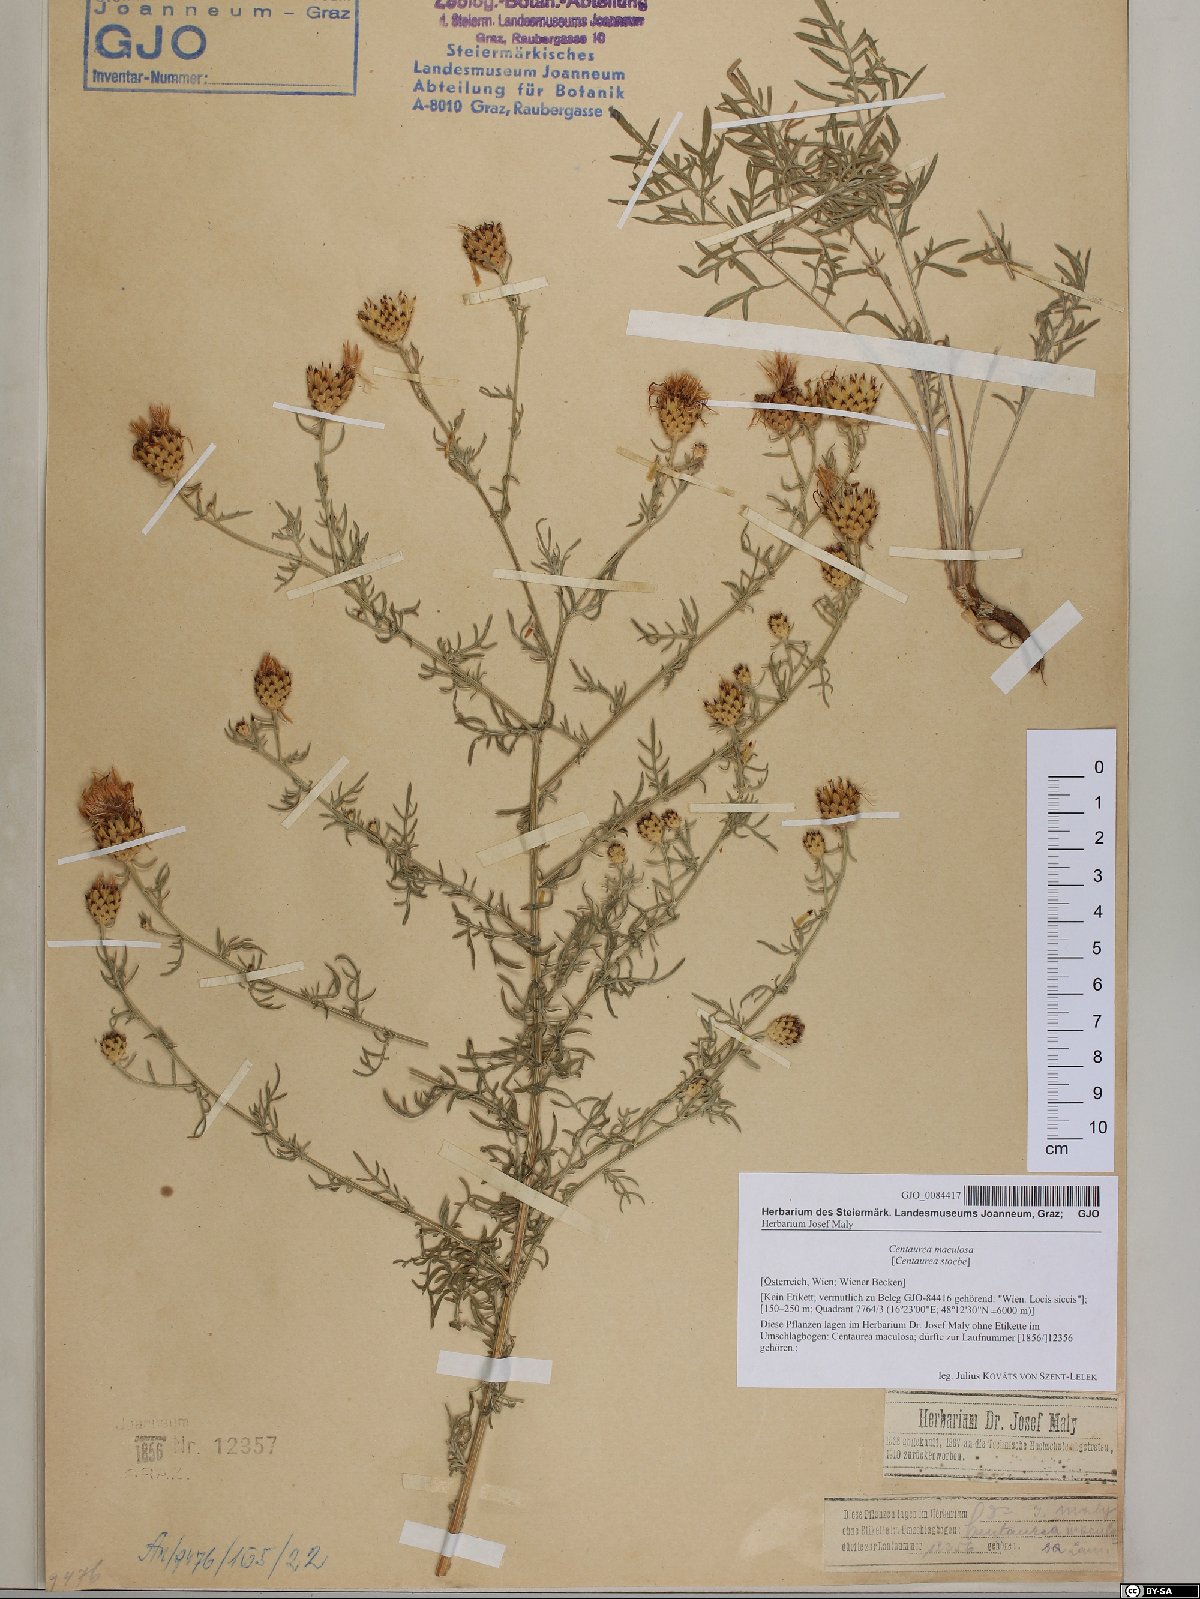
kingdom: Plantae
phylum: Tracheophyta
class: Magnoliopsida
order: Asterales
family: Asteraceae
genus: Centaurea
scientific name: Centaurea stoebe
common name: Spotted knapweed
